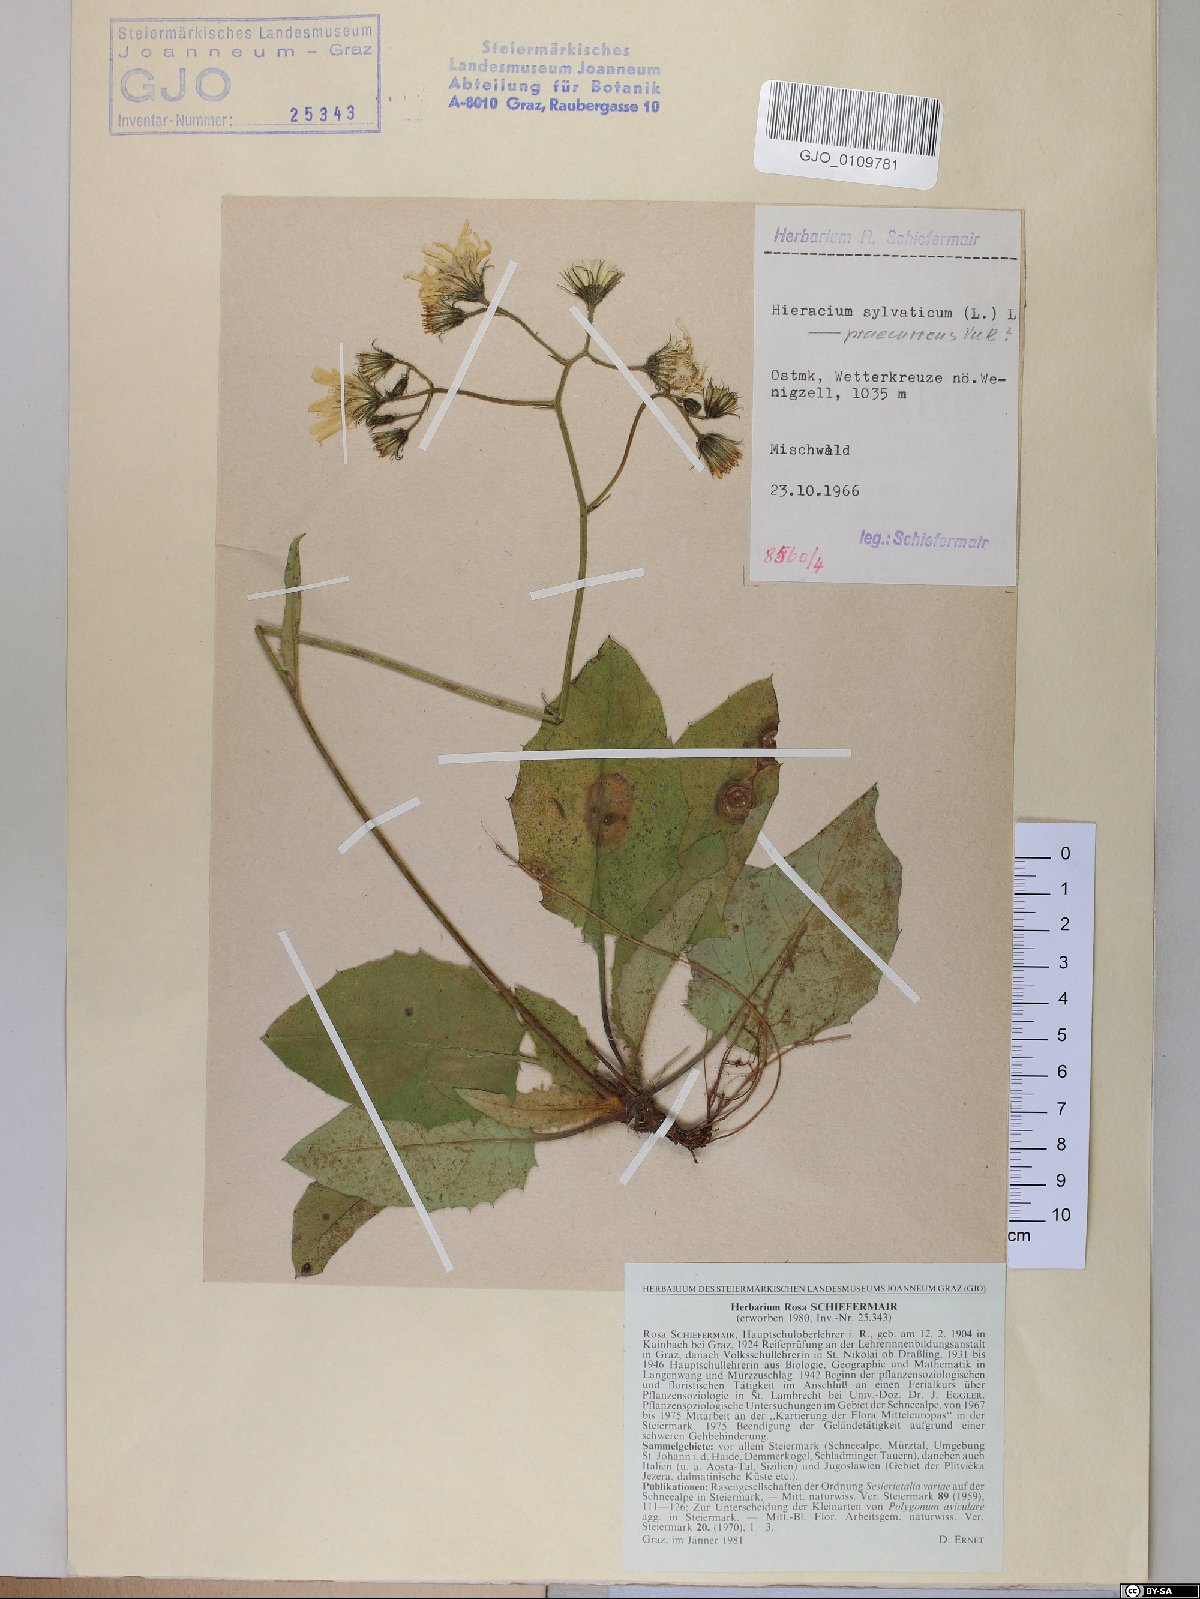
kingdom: Plantae
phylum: Tracheophyta
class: Magnoliopsida
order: Asterales
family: Asteraceae
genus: Hieracium
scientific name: Hieracium rotundatum
